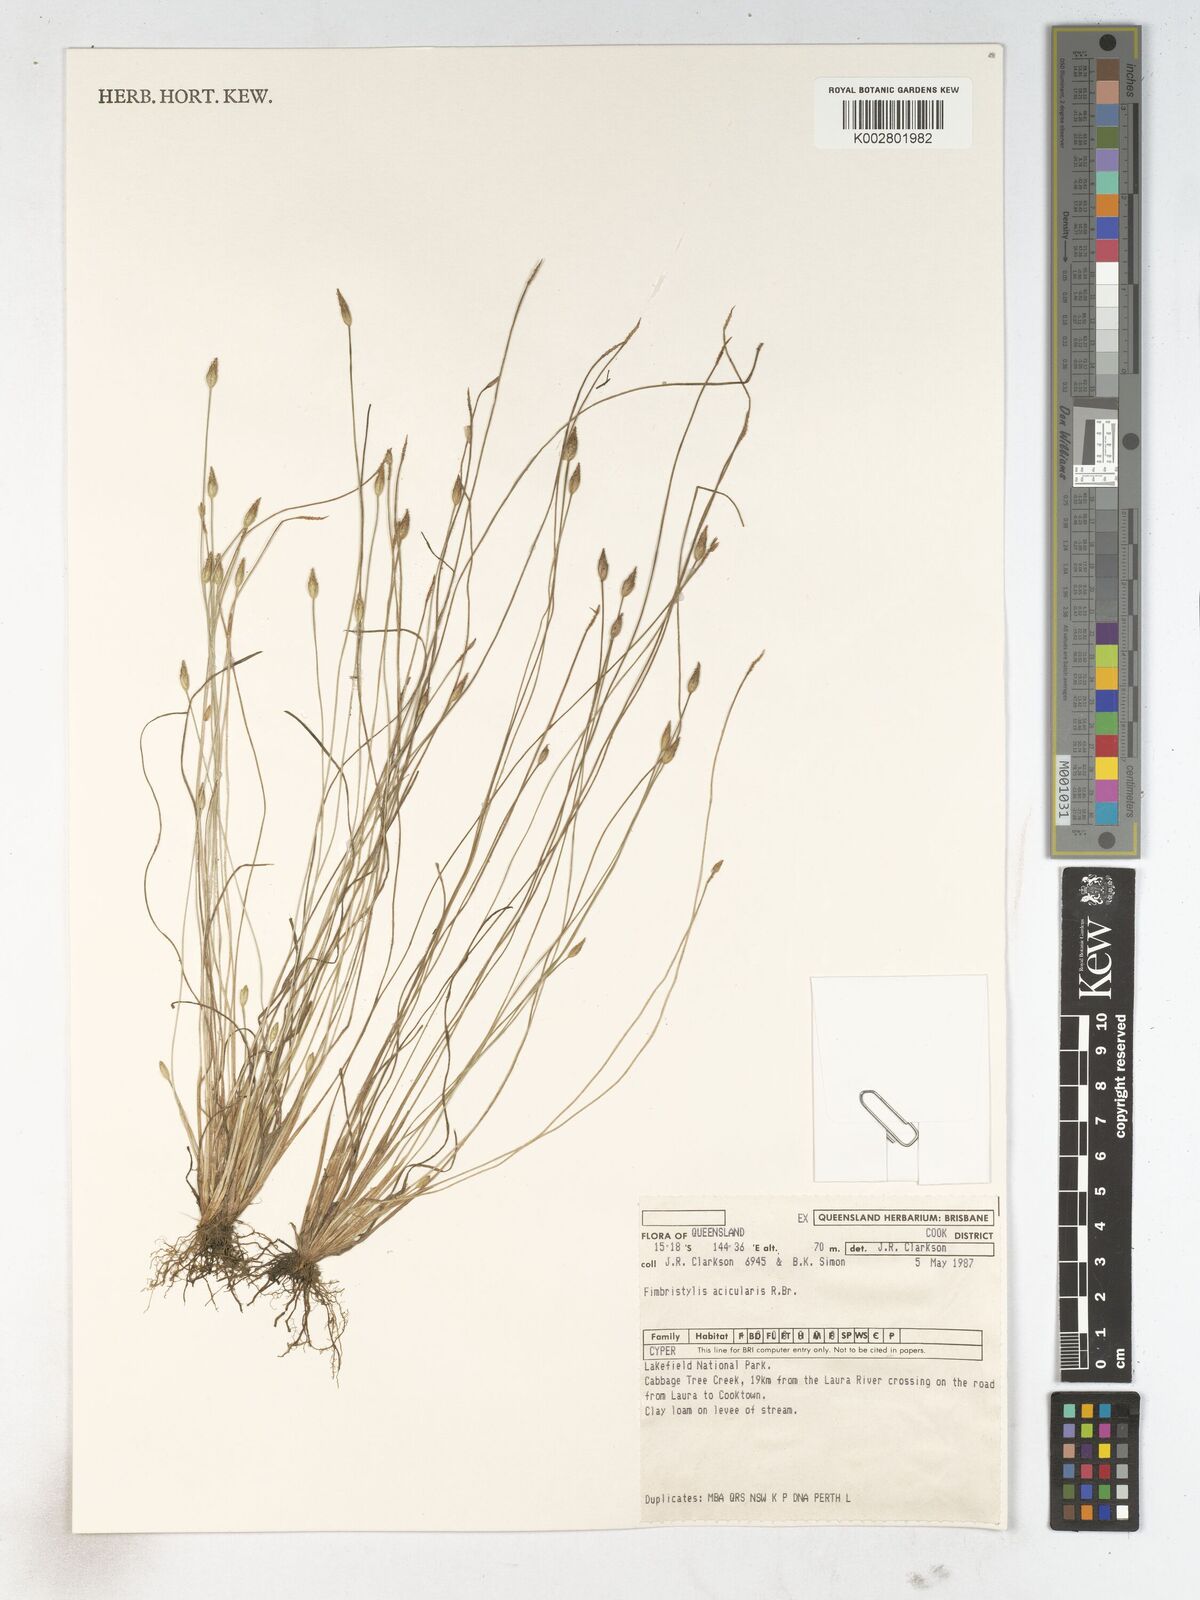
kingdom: Plantae
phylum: Tracheophyta
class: Liliopsida
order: Poales
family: Cyperaceae
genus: Fimbristylis
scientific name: Fimbristylis acicularis
